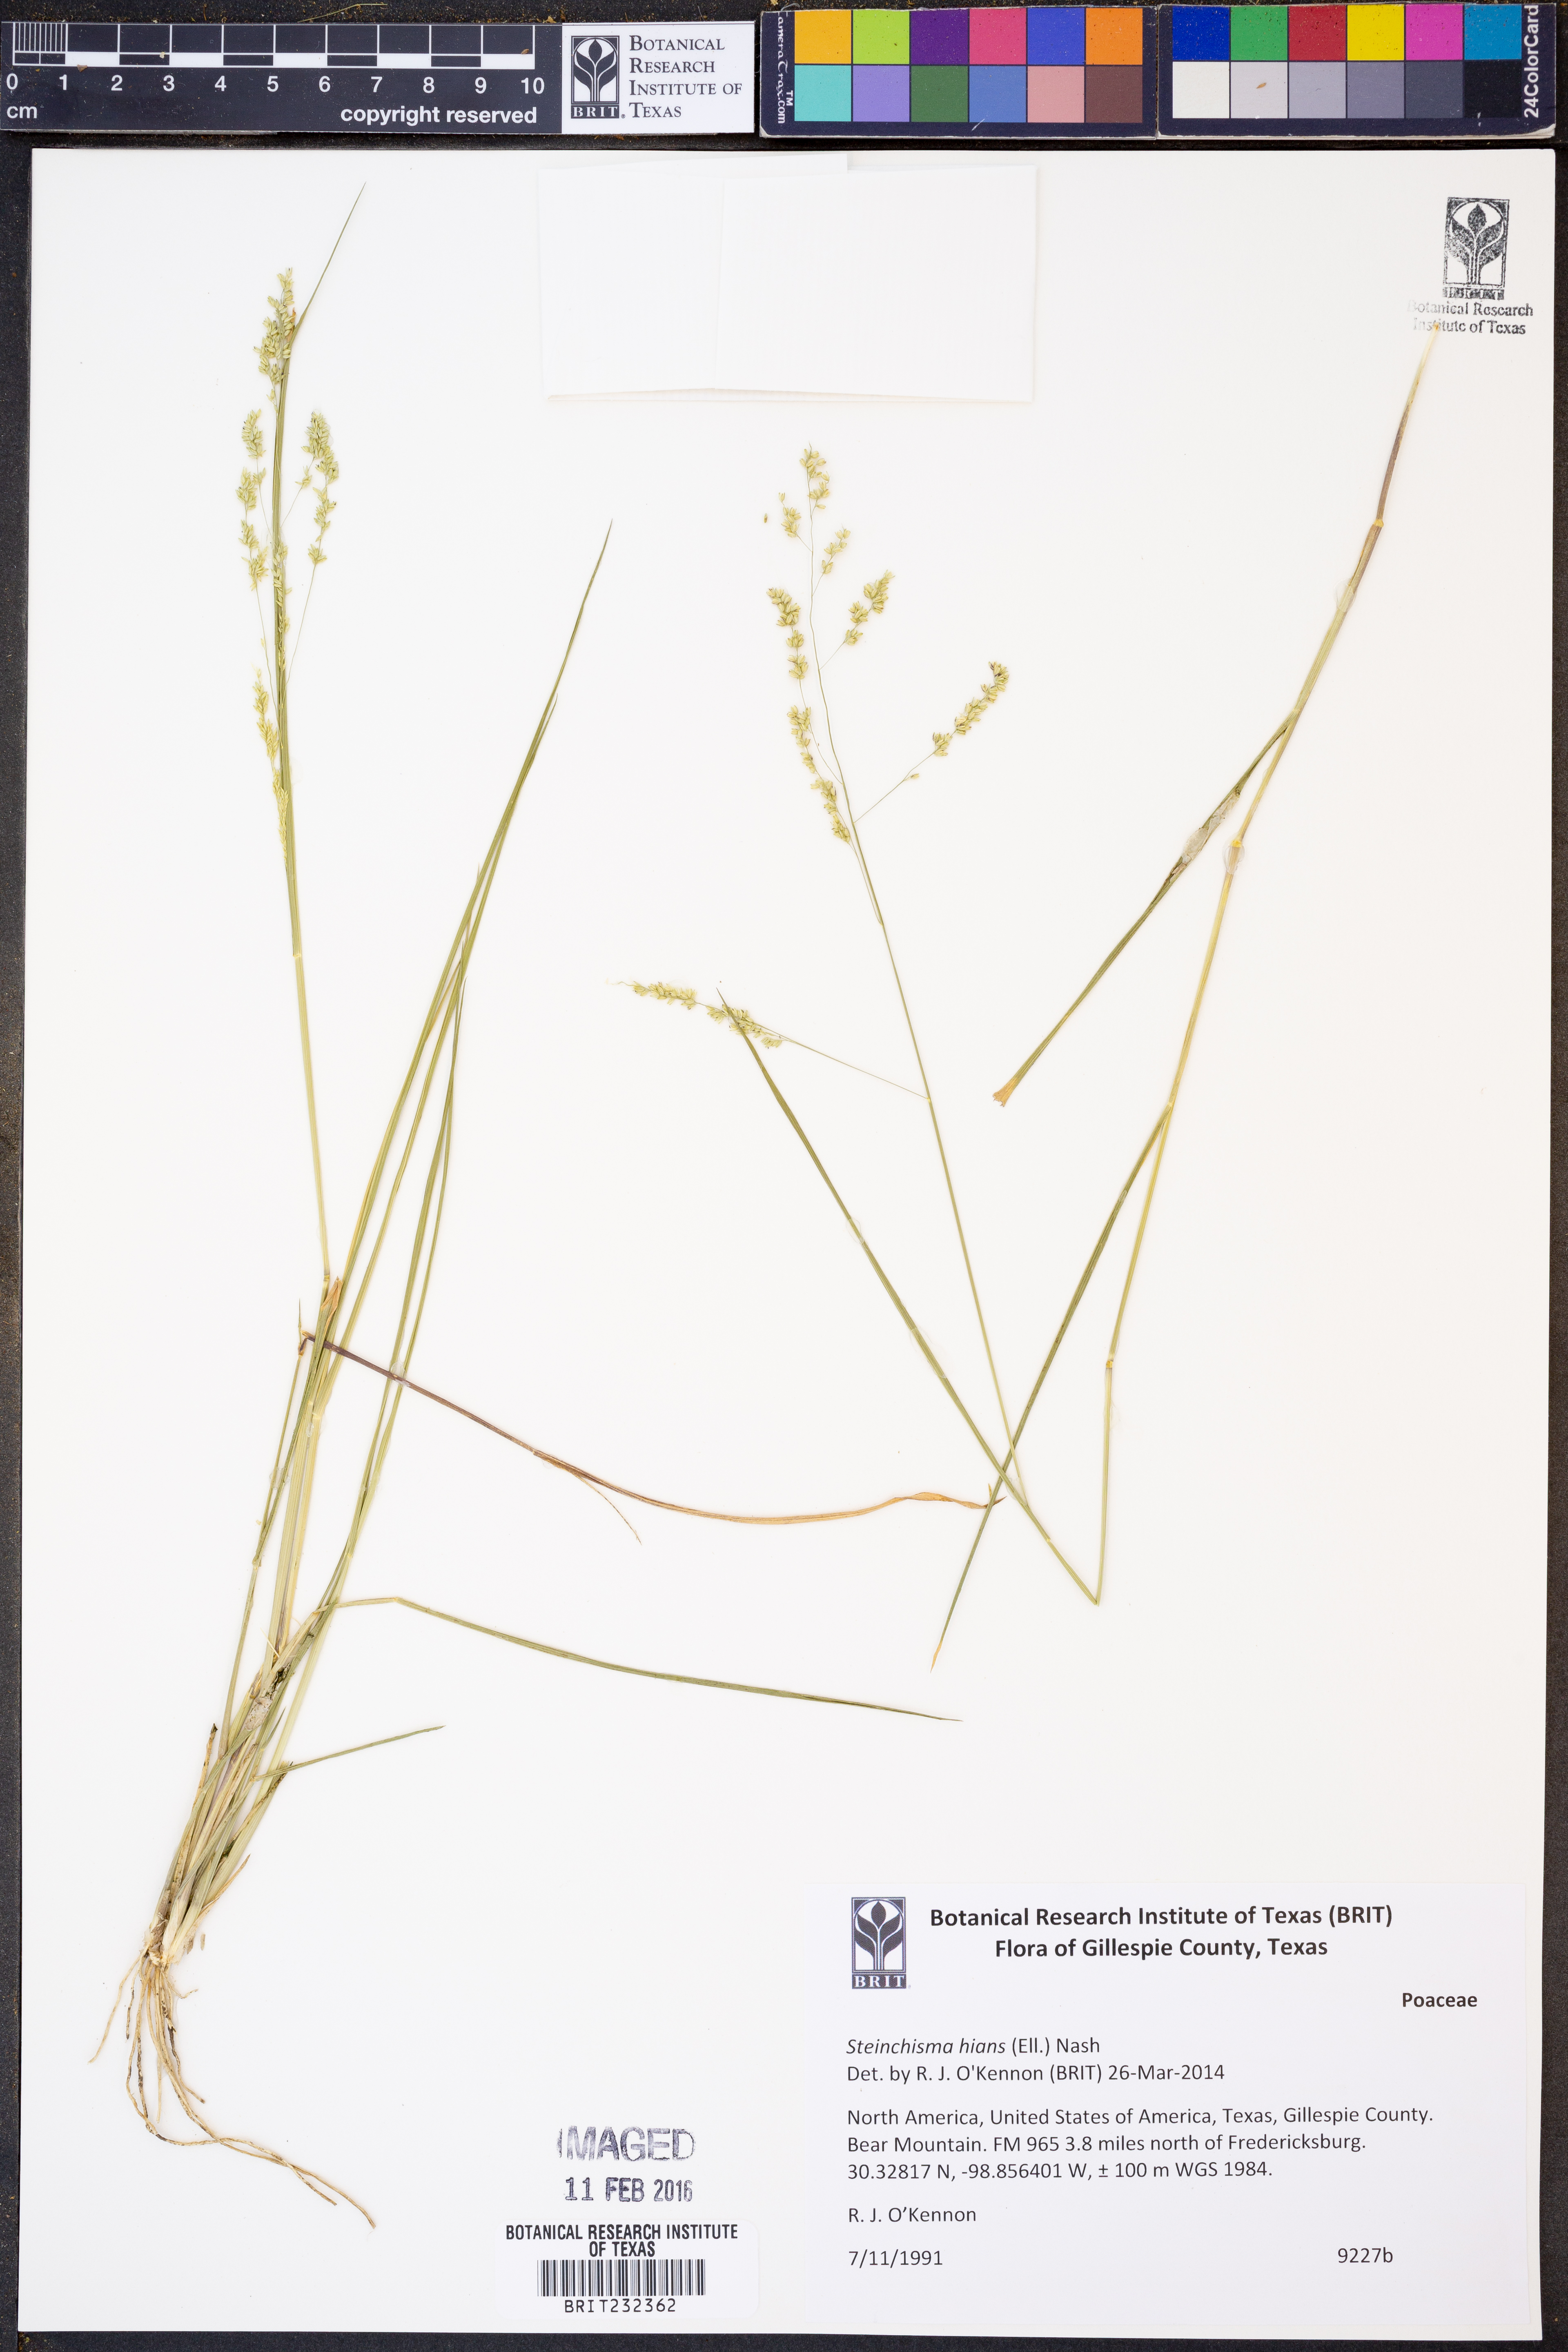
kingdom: Plantae
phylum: Tracheophyta
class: Liliopsida
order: Poales
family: Poaceae
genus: Steinchisma
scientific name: Steinchisma hians
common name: Gaping panic grass
